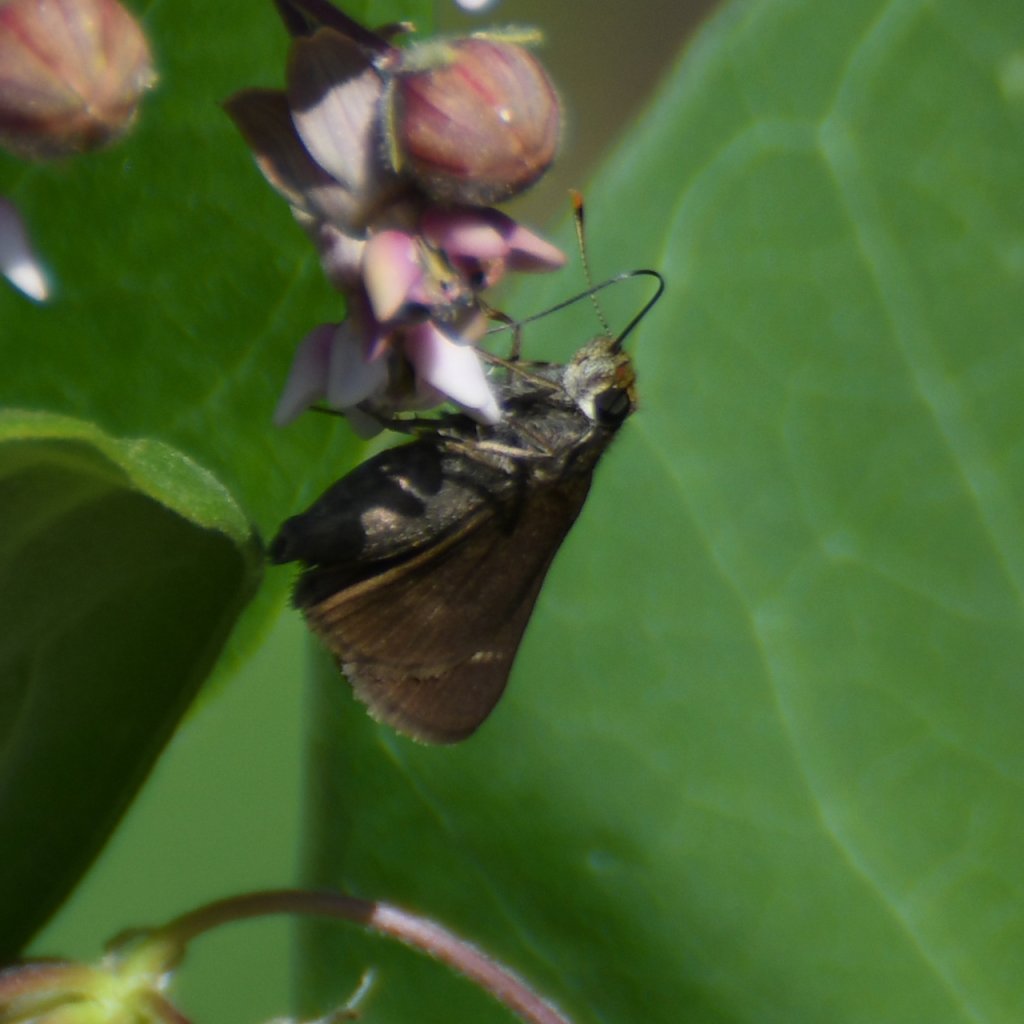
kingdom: Animalia
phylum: Arthropoda
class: Insecta
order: Lepidoptera
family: Hesperiidae
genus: Euphyes
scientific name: Euphyes vestris
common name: Dun Skipper
